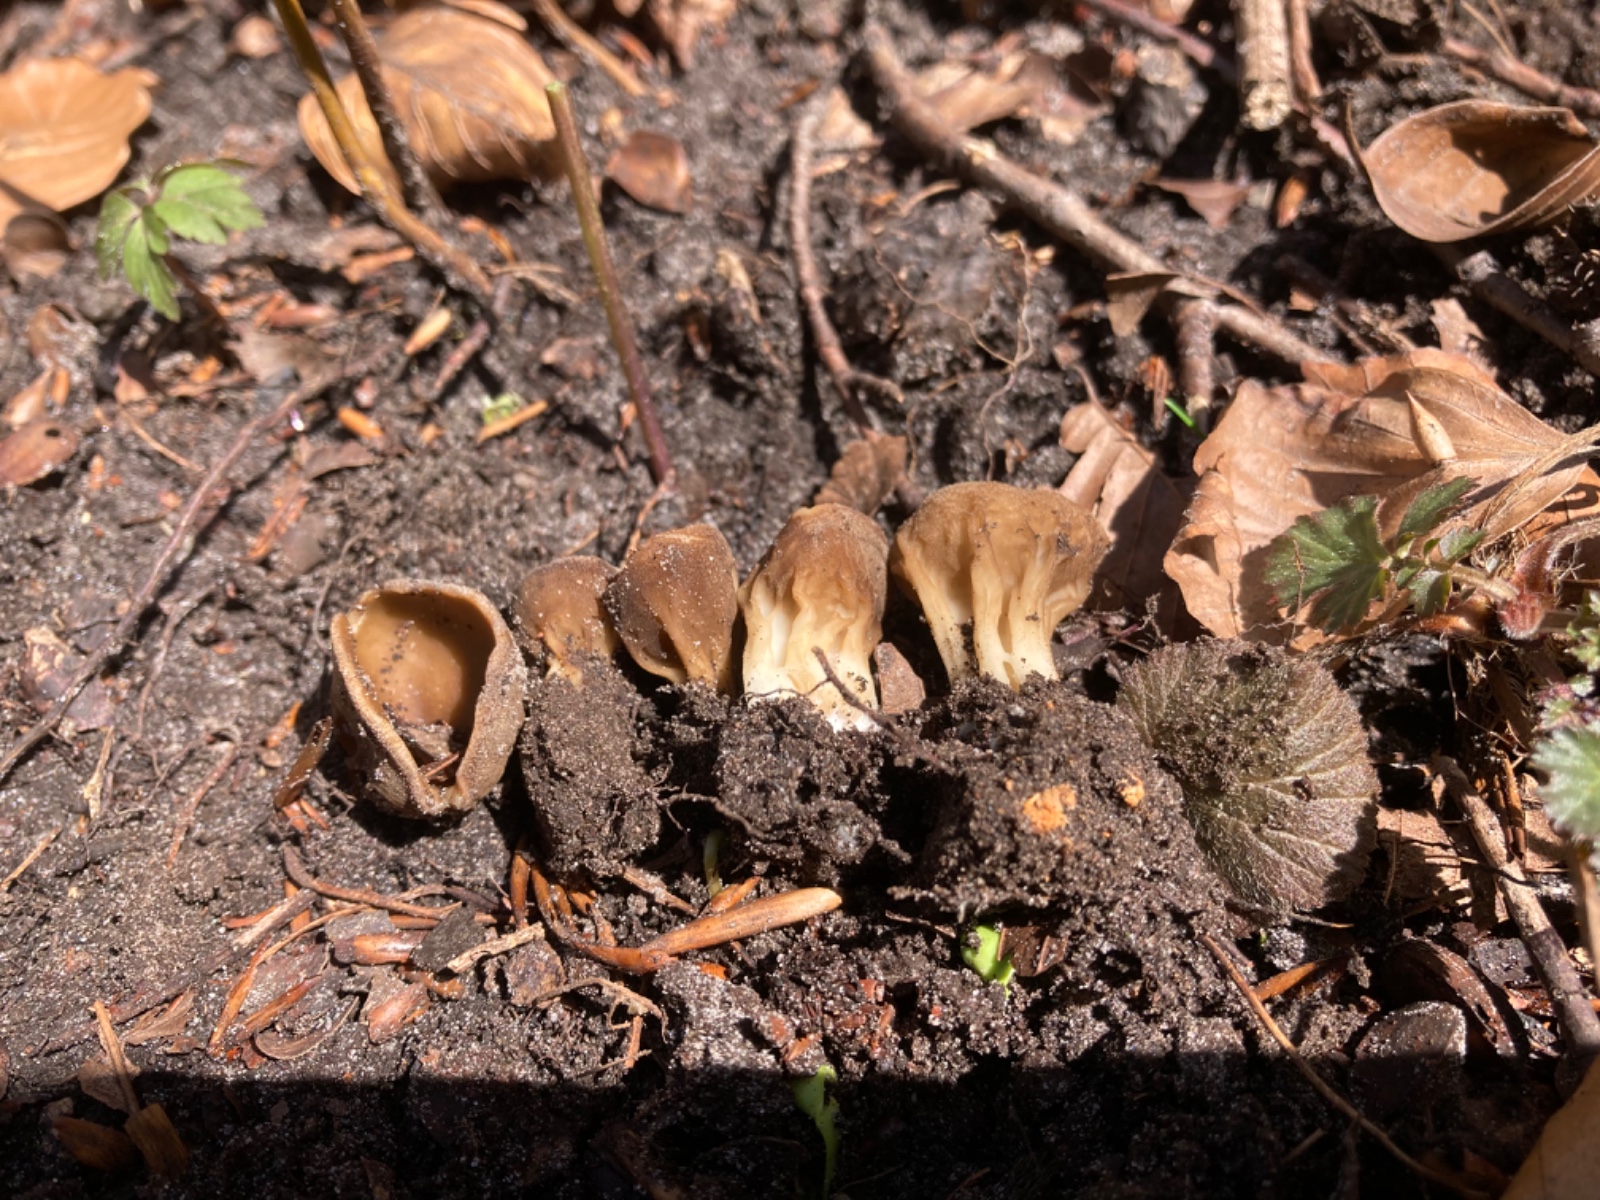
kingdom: Fungi
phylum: Ascomycota
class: Pezizomycetes
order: Pezizales
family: Helvellaceae
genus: Helvella
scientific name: Helvella acetabulum
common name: pokal-foldhat
